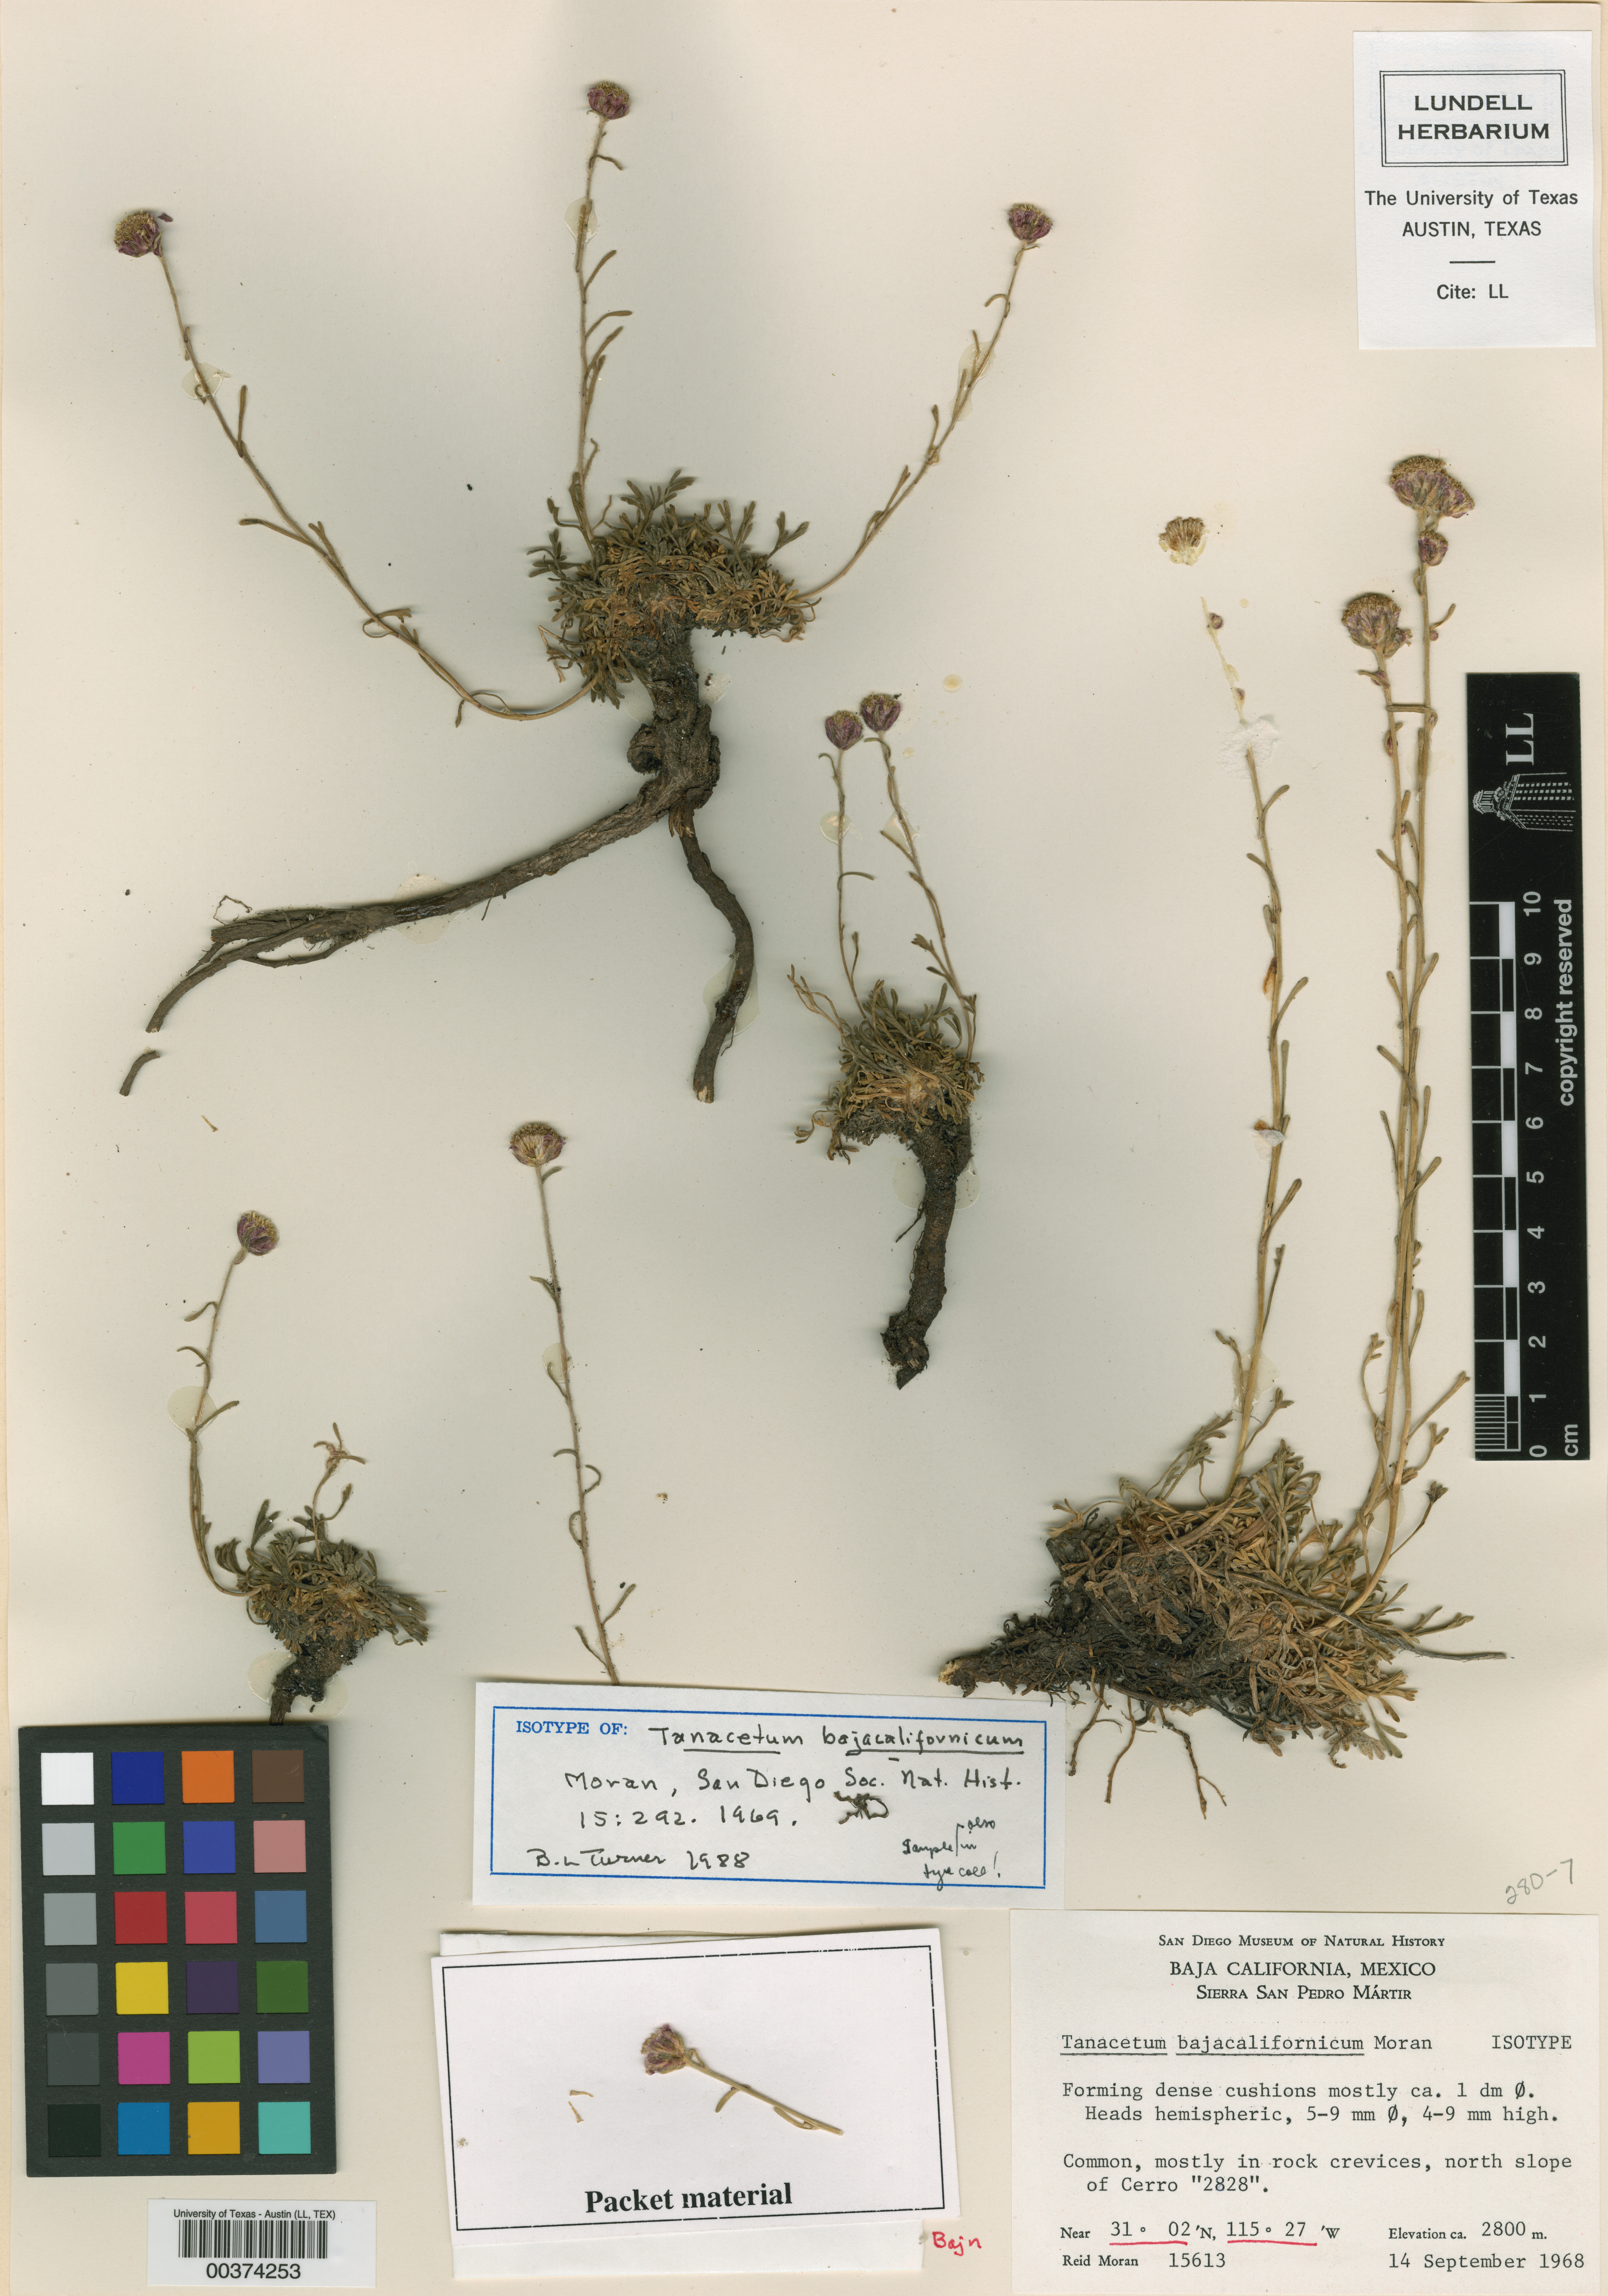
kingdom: Plantae
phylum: Tracheophyta
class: Magnoliopsida
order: Asterales
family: Asteraceae
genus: Artemisia
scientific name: Artemisia martirensis
